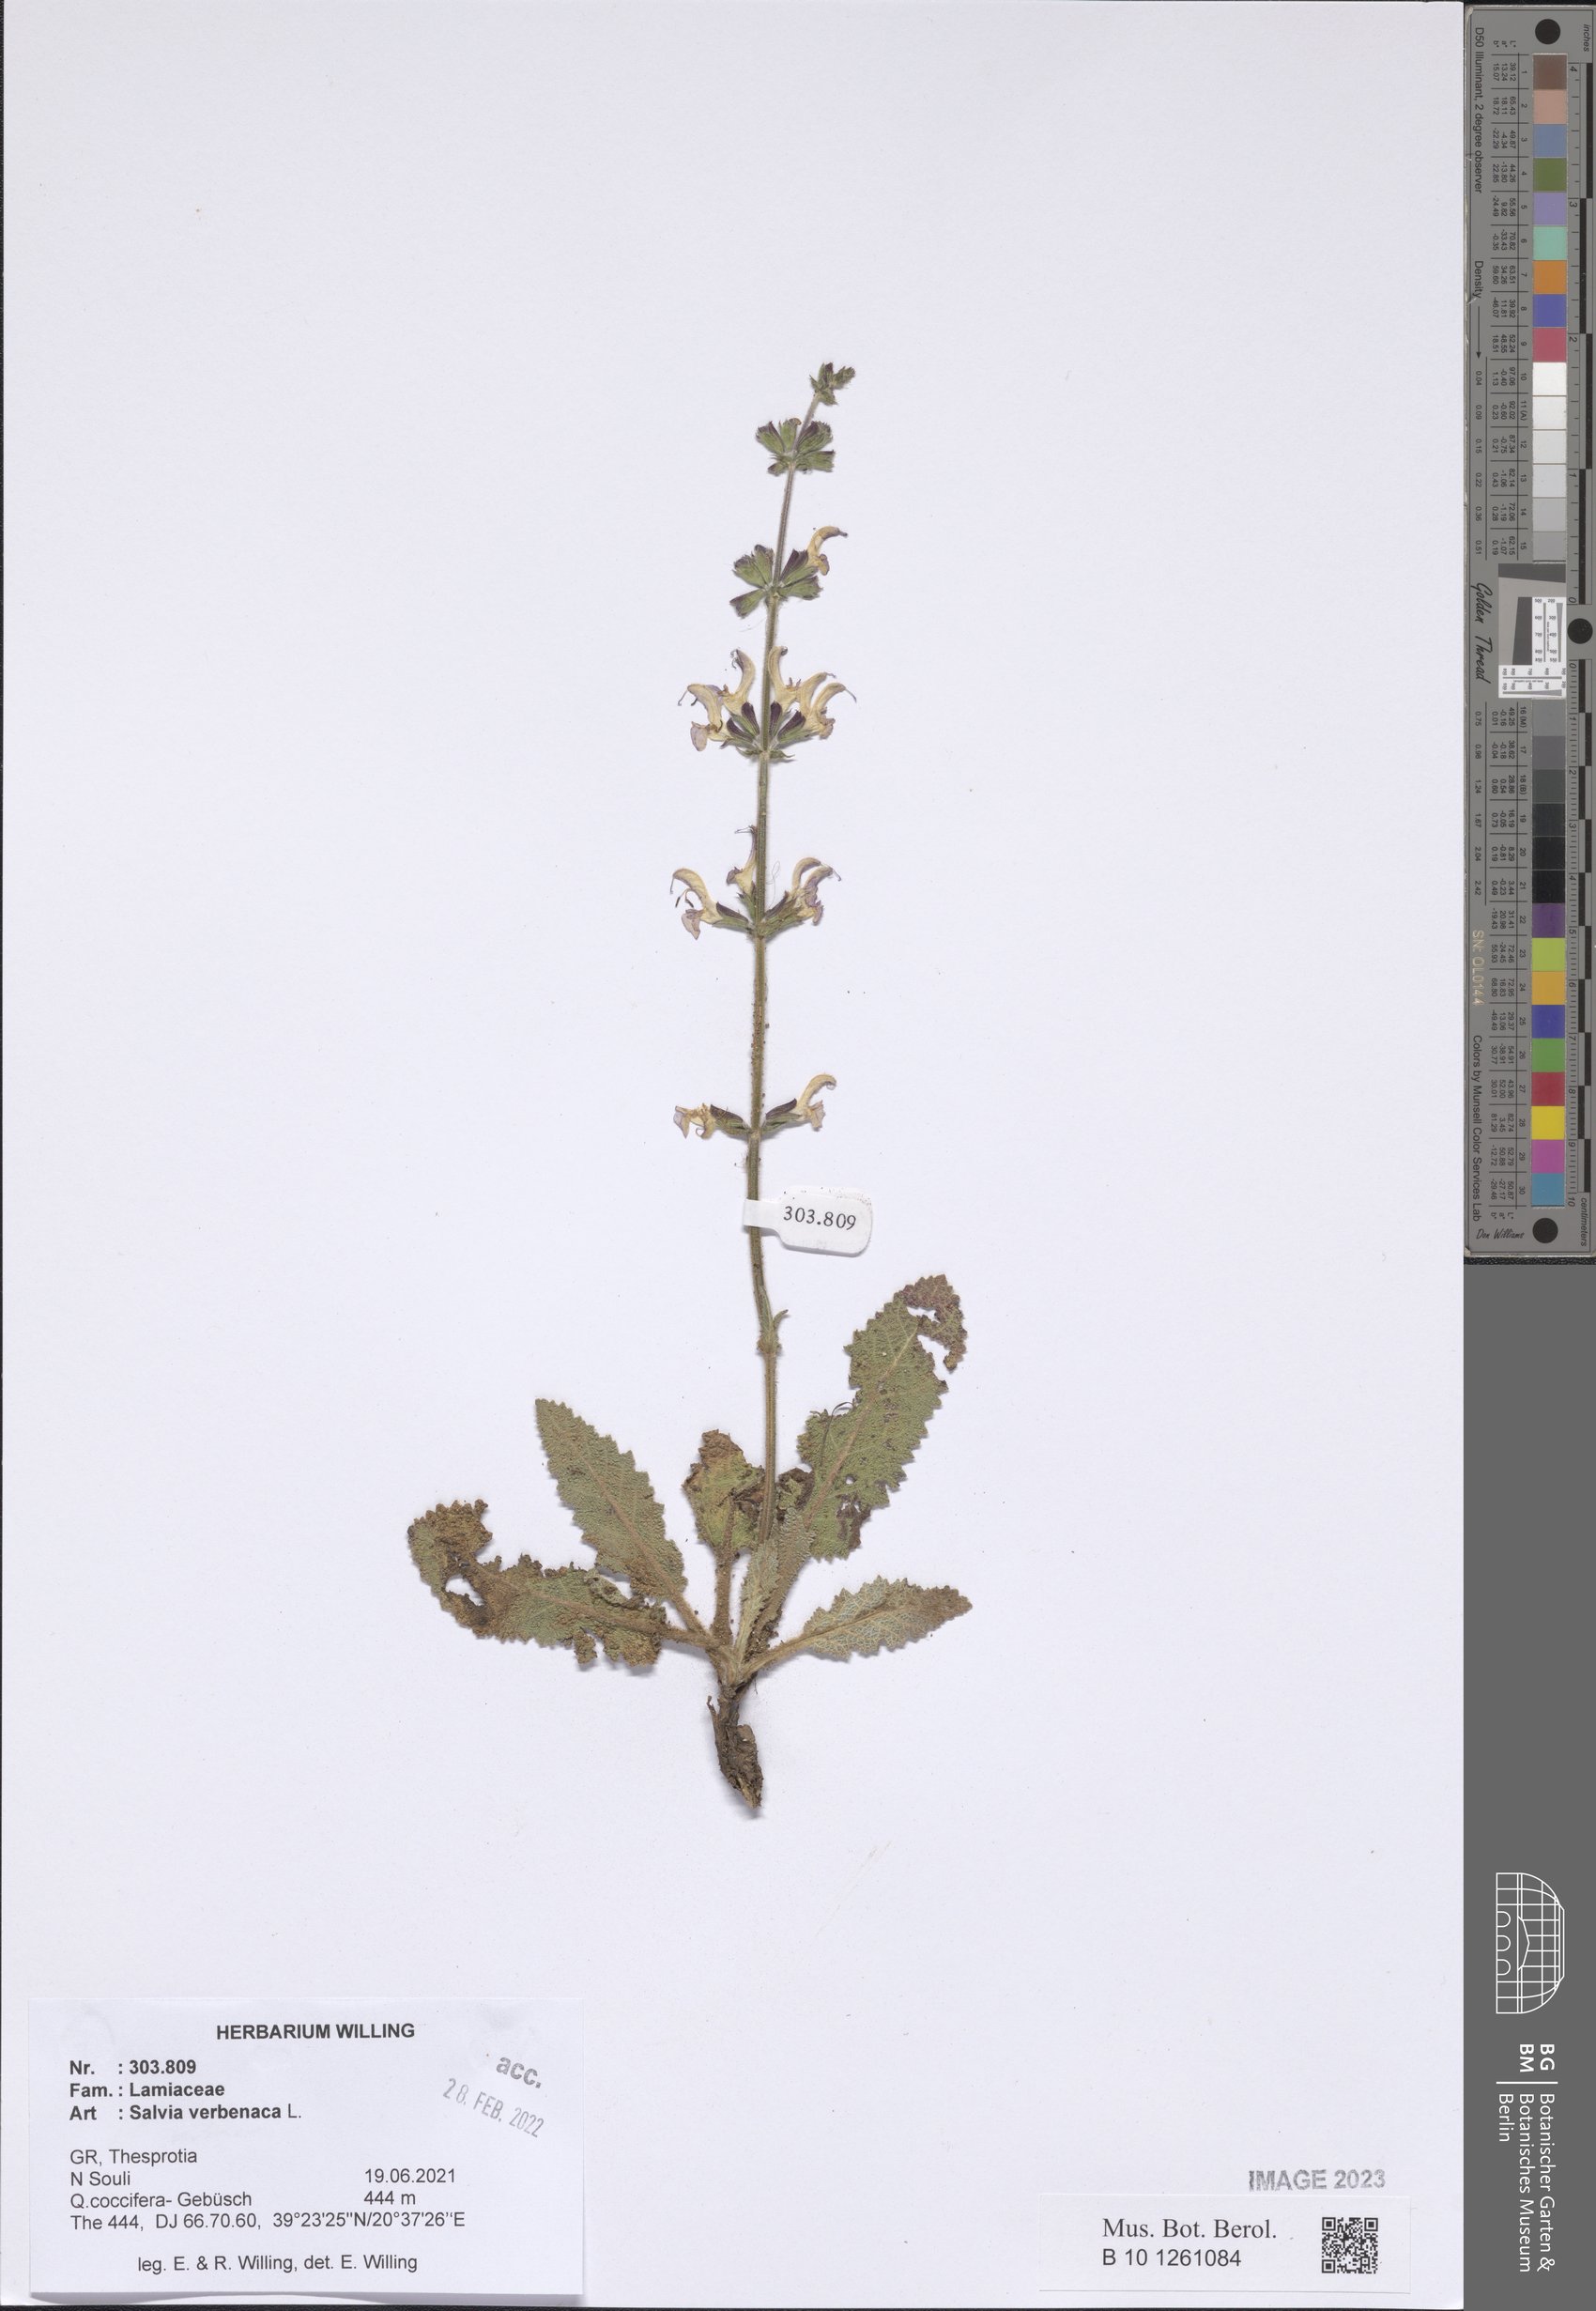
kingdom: Plantae
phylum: Tracheophyta
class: Magnoliopsida
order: Lamiales
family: Lamiaceae
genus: Salvia
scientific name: Salvia verbenaca
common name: Wild clary
